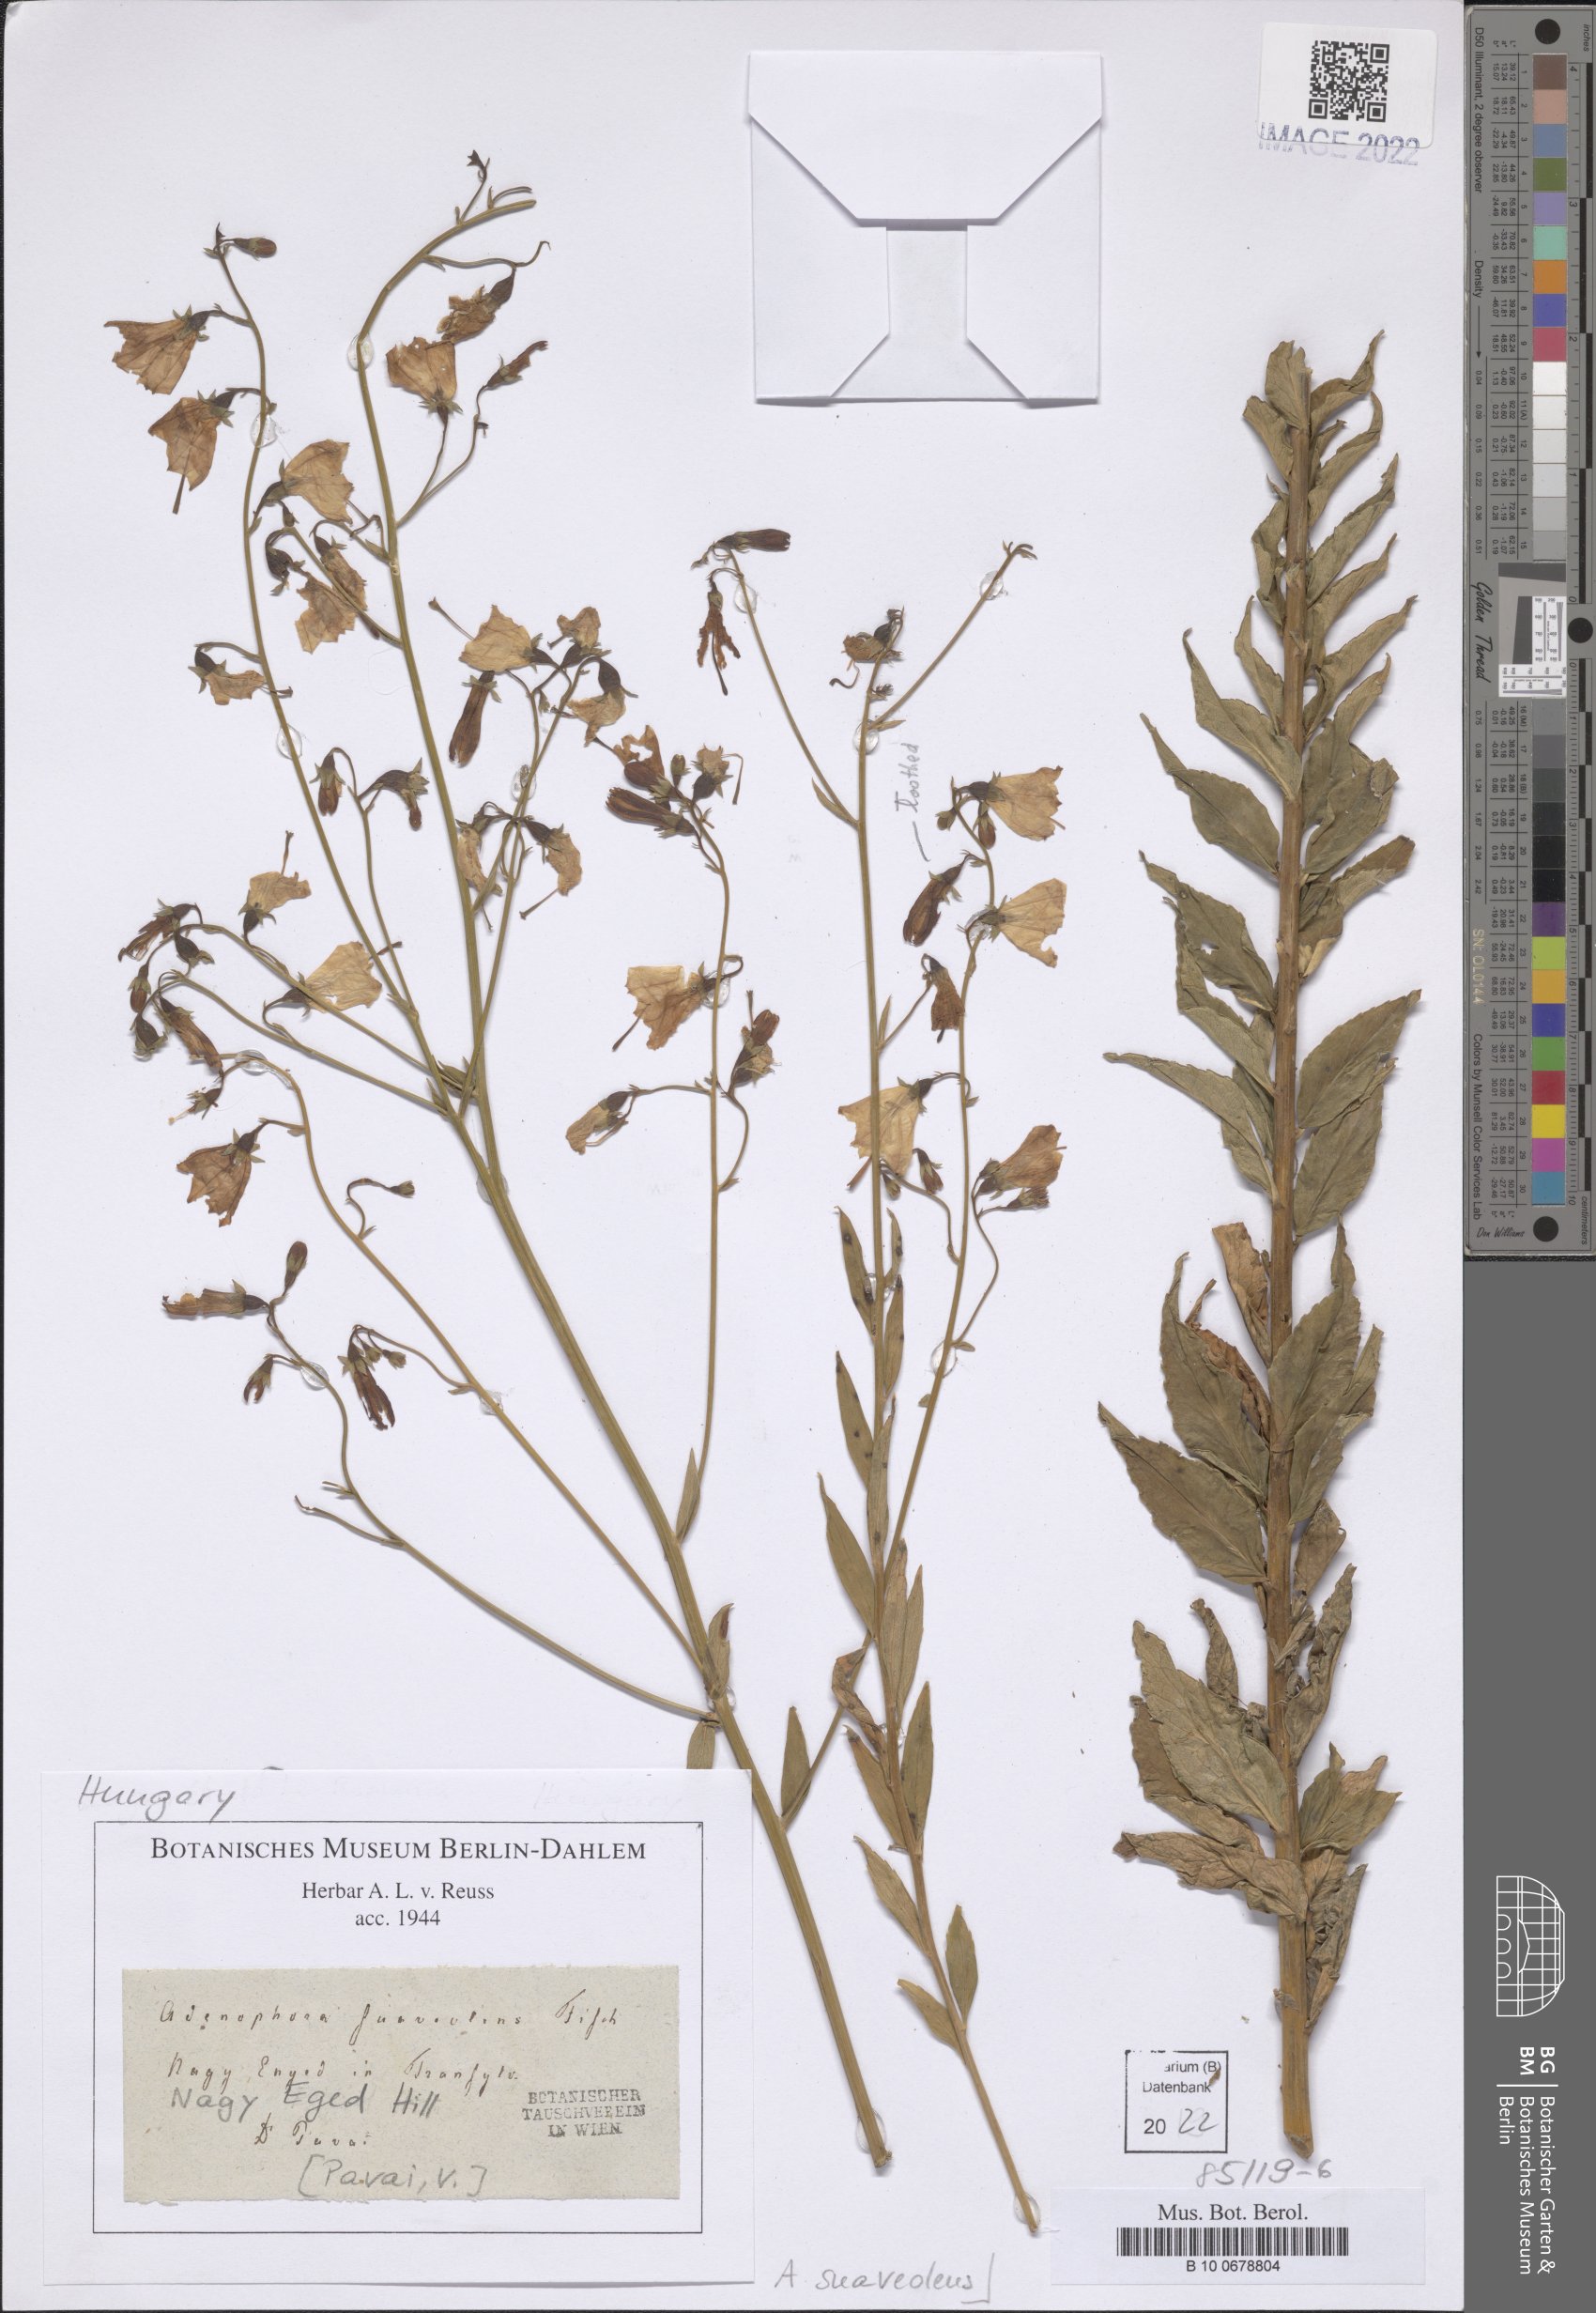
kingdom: Plantae
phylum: Tracheophyta
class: Magnoliopsida
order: Asterales
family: Campanulaceae
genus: Adenophora
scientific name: Adenophora liliifolia
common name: Lilyleaf ladybells
